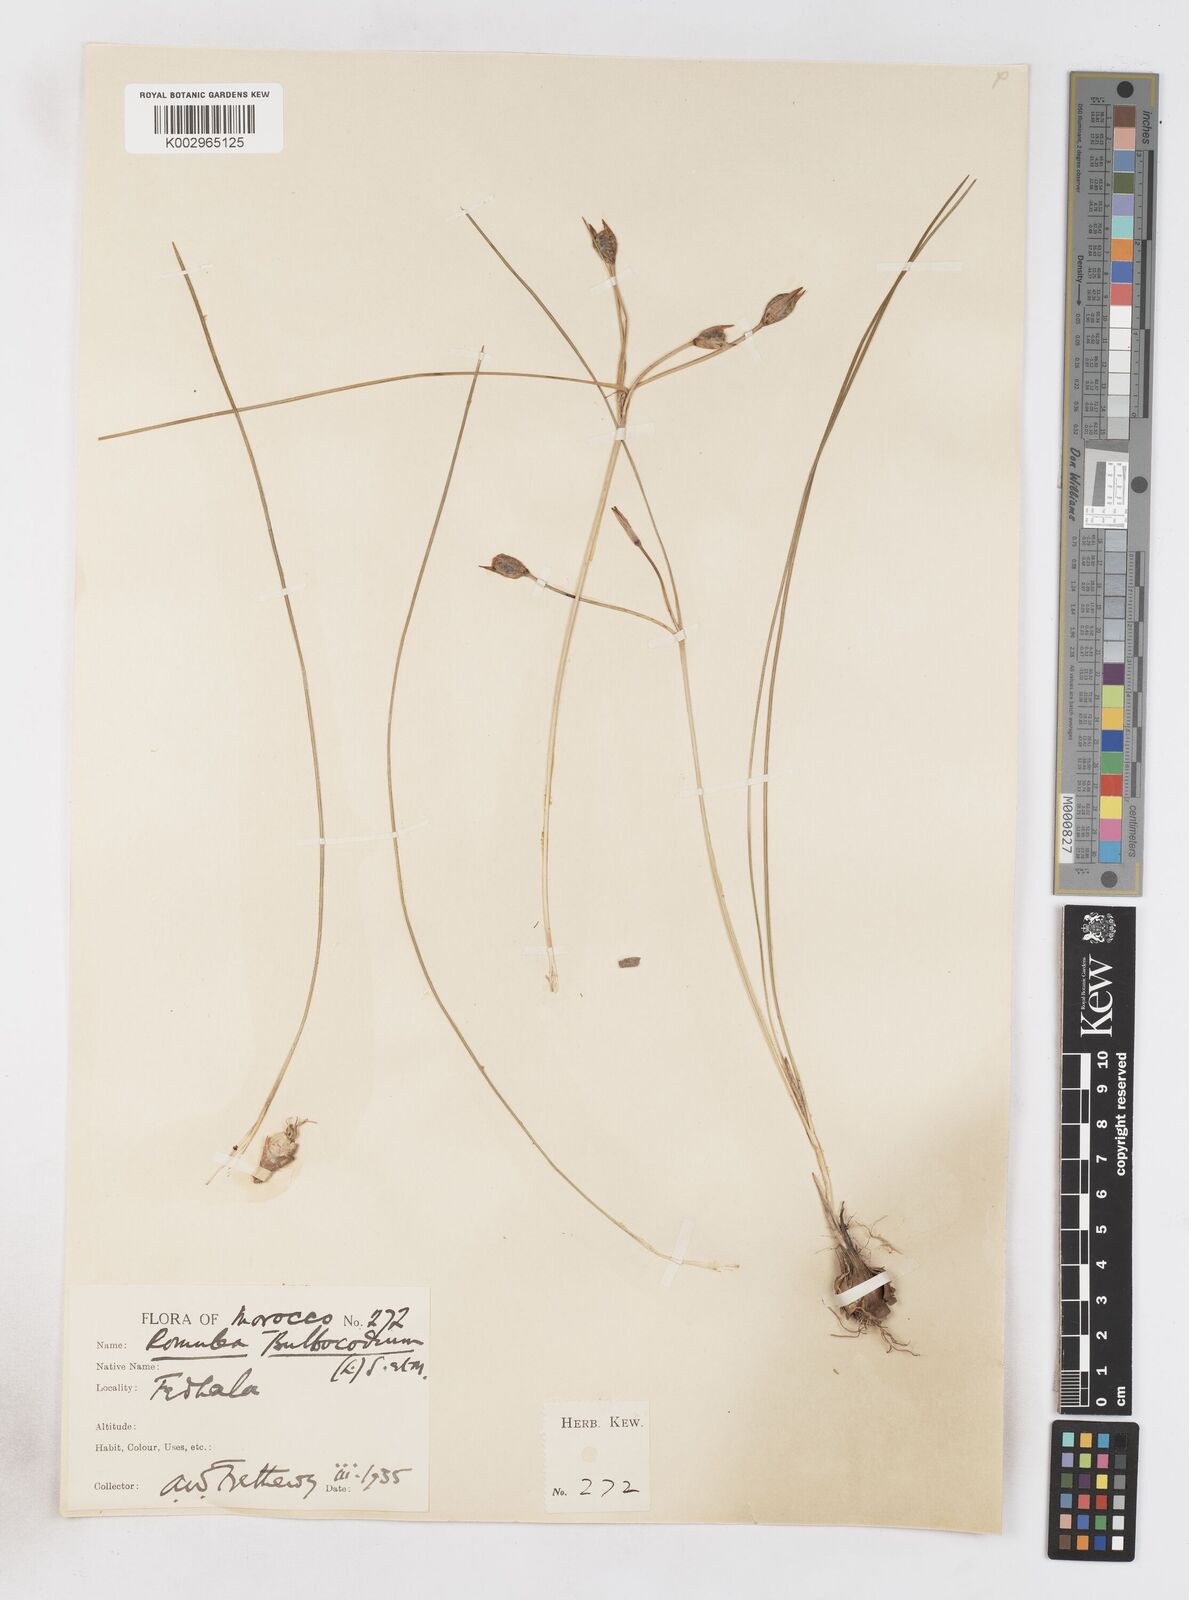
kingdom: Plantae
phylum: Tracheophyta
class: Liliopsida
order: Asparagales
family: Iridaceae
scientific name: Iridaceae
